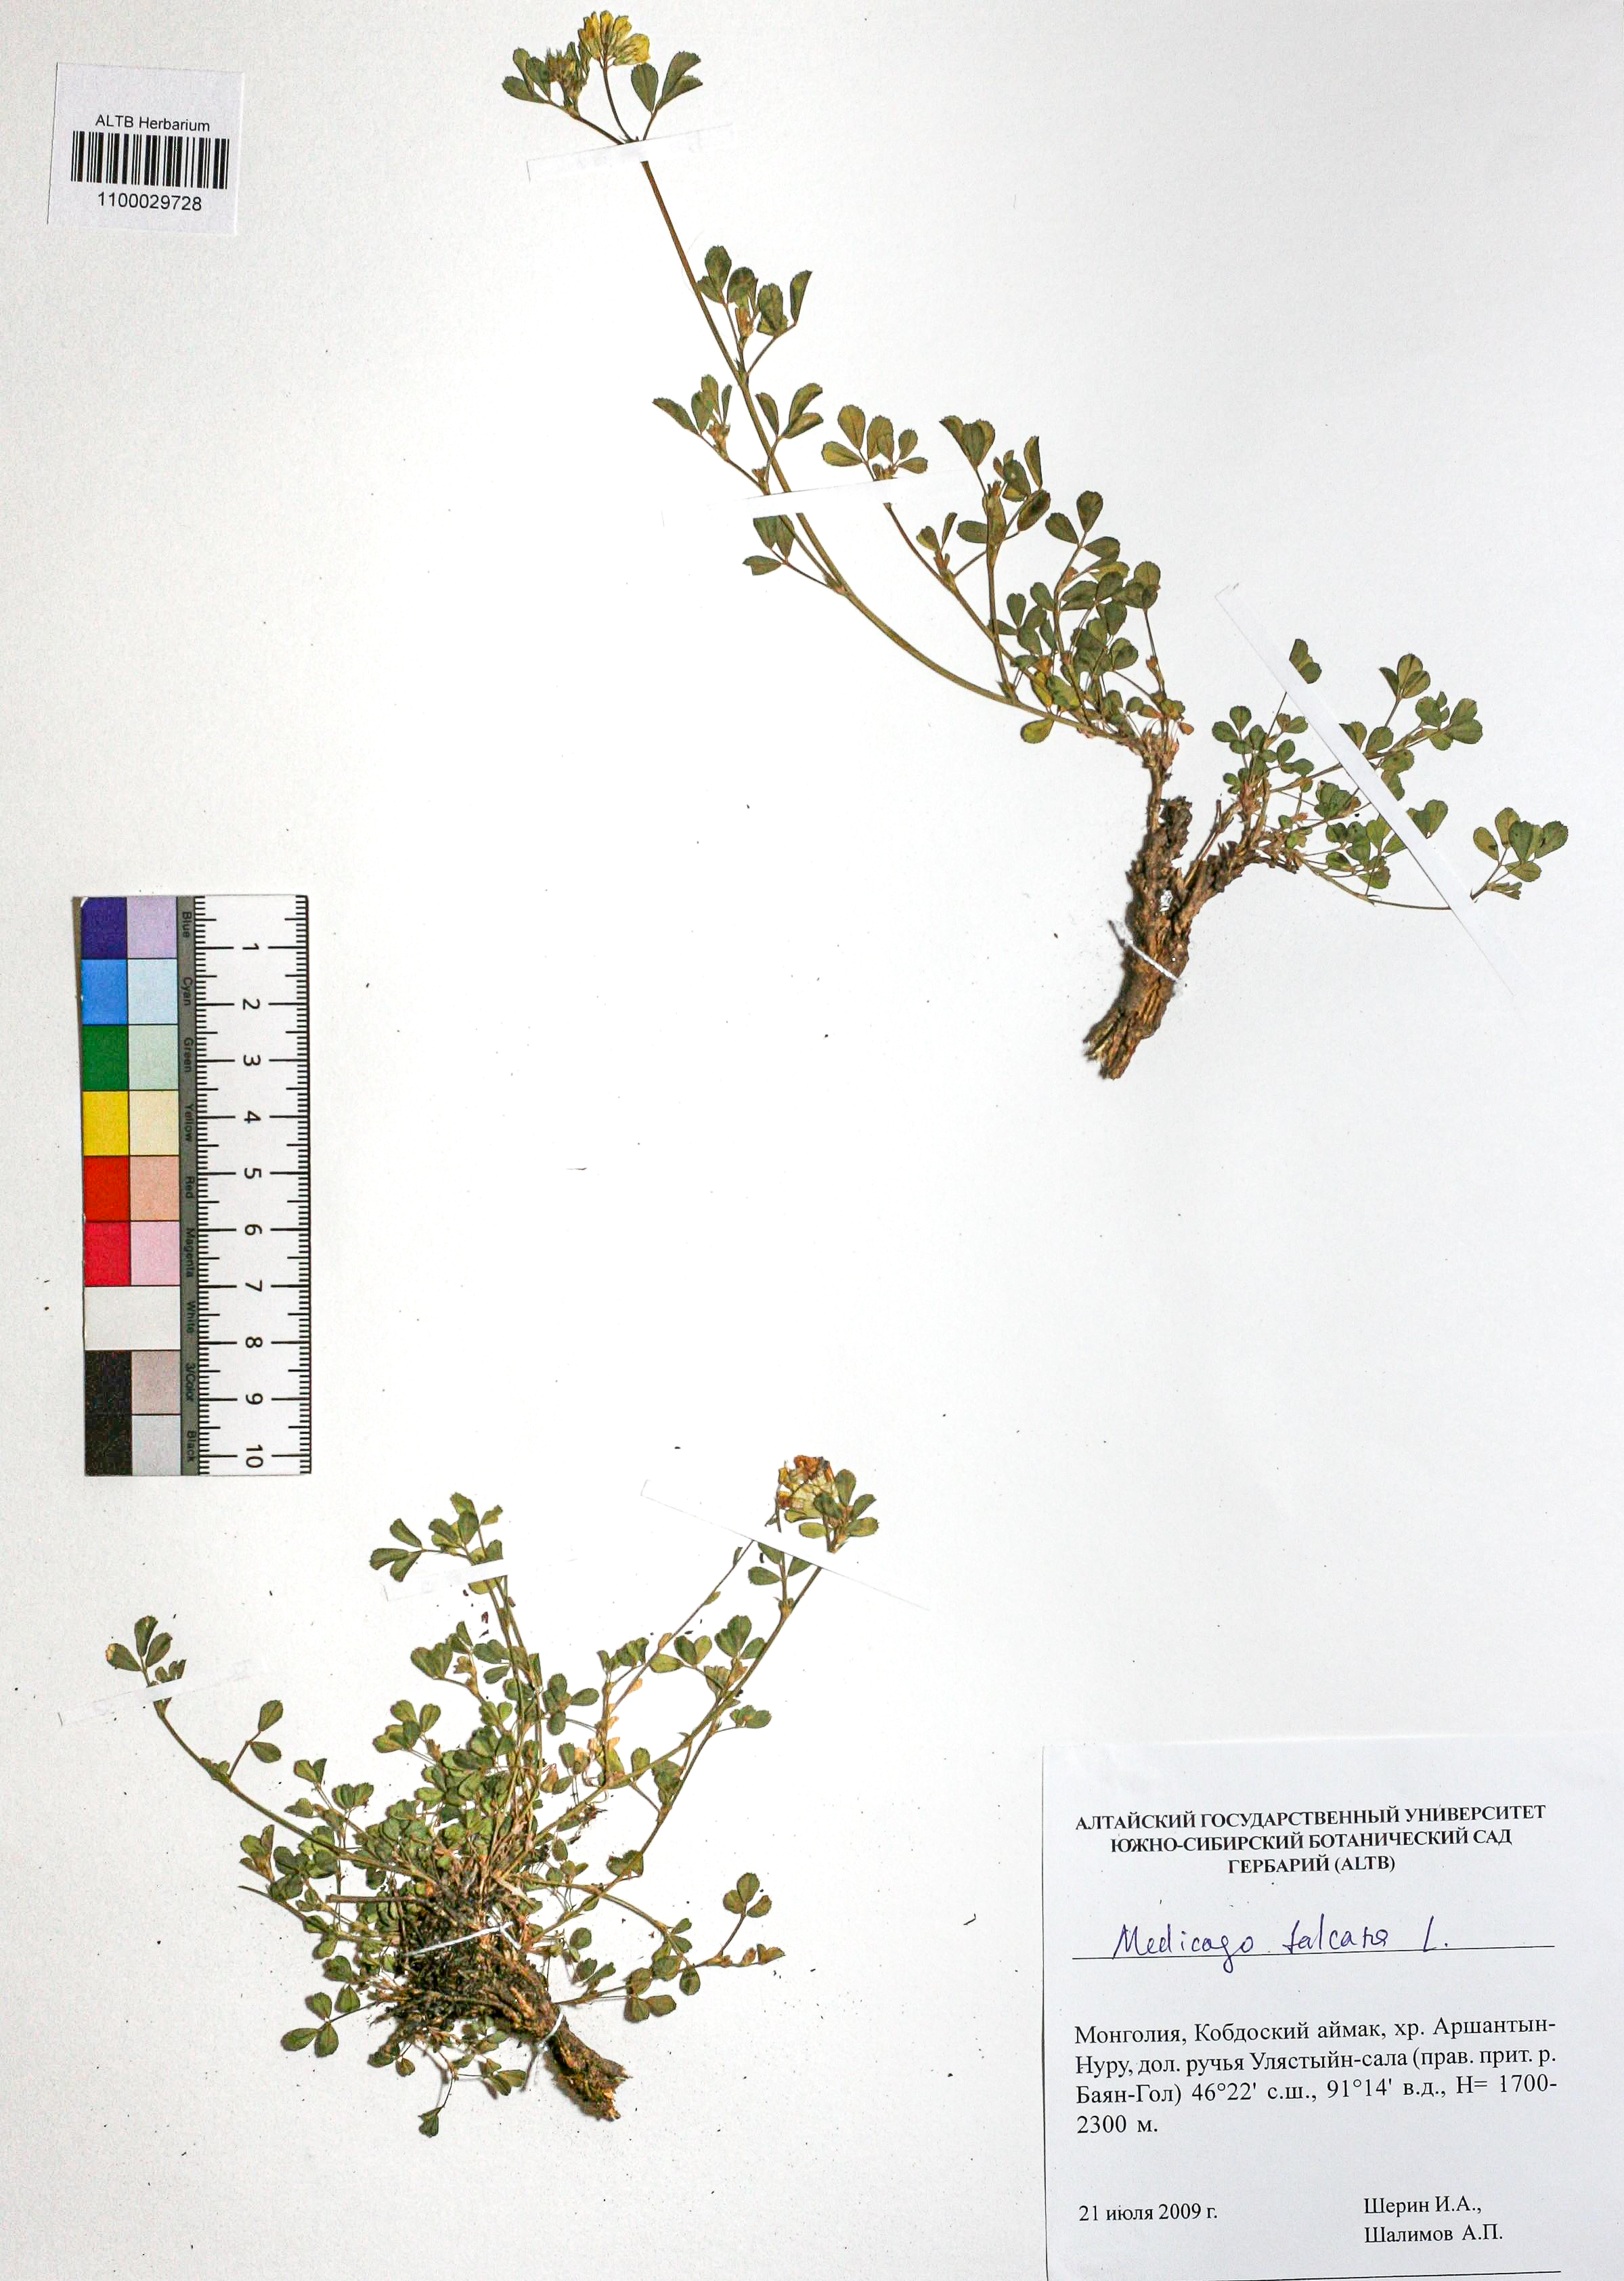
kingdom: Plantae
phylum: Tracheophyta
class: Magnoliopsida
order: Fabales
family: Fabaceae
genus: Medicago
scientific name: Medicago falcata
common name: Sickle medick
